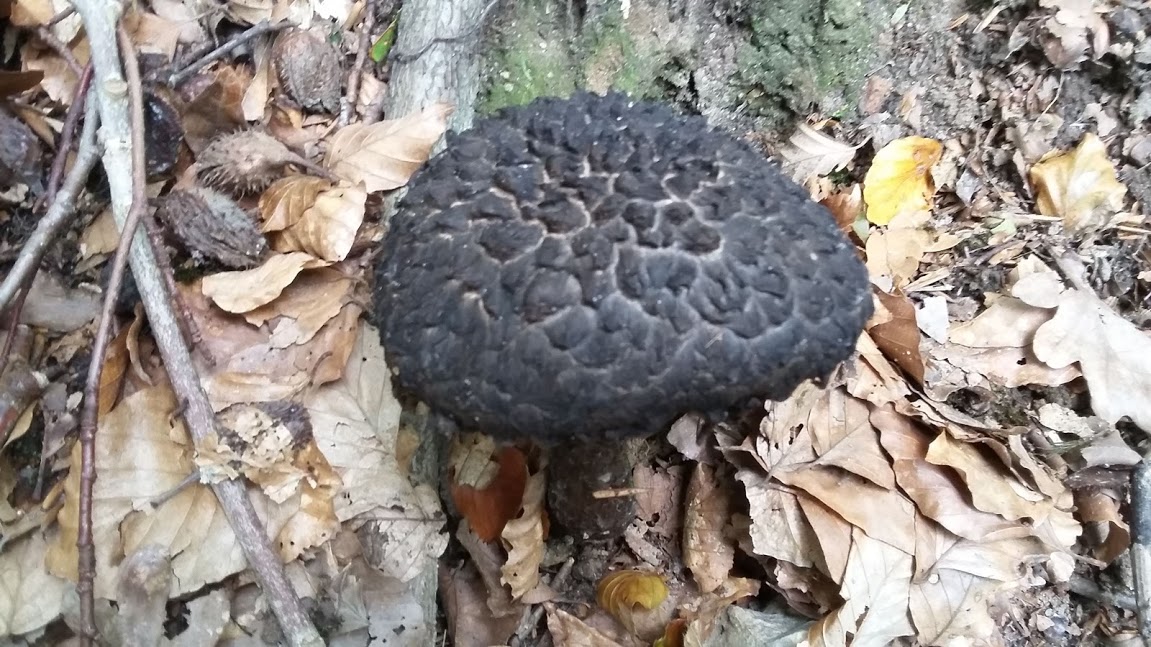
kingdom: Fungi
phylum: Basidiomycota
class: Agaricomycetes
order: Boletales
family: Boletaceae
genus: Strobilomyces
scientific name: Strobilomyces strobilaceus
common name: koglerørhat
